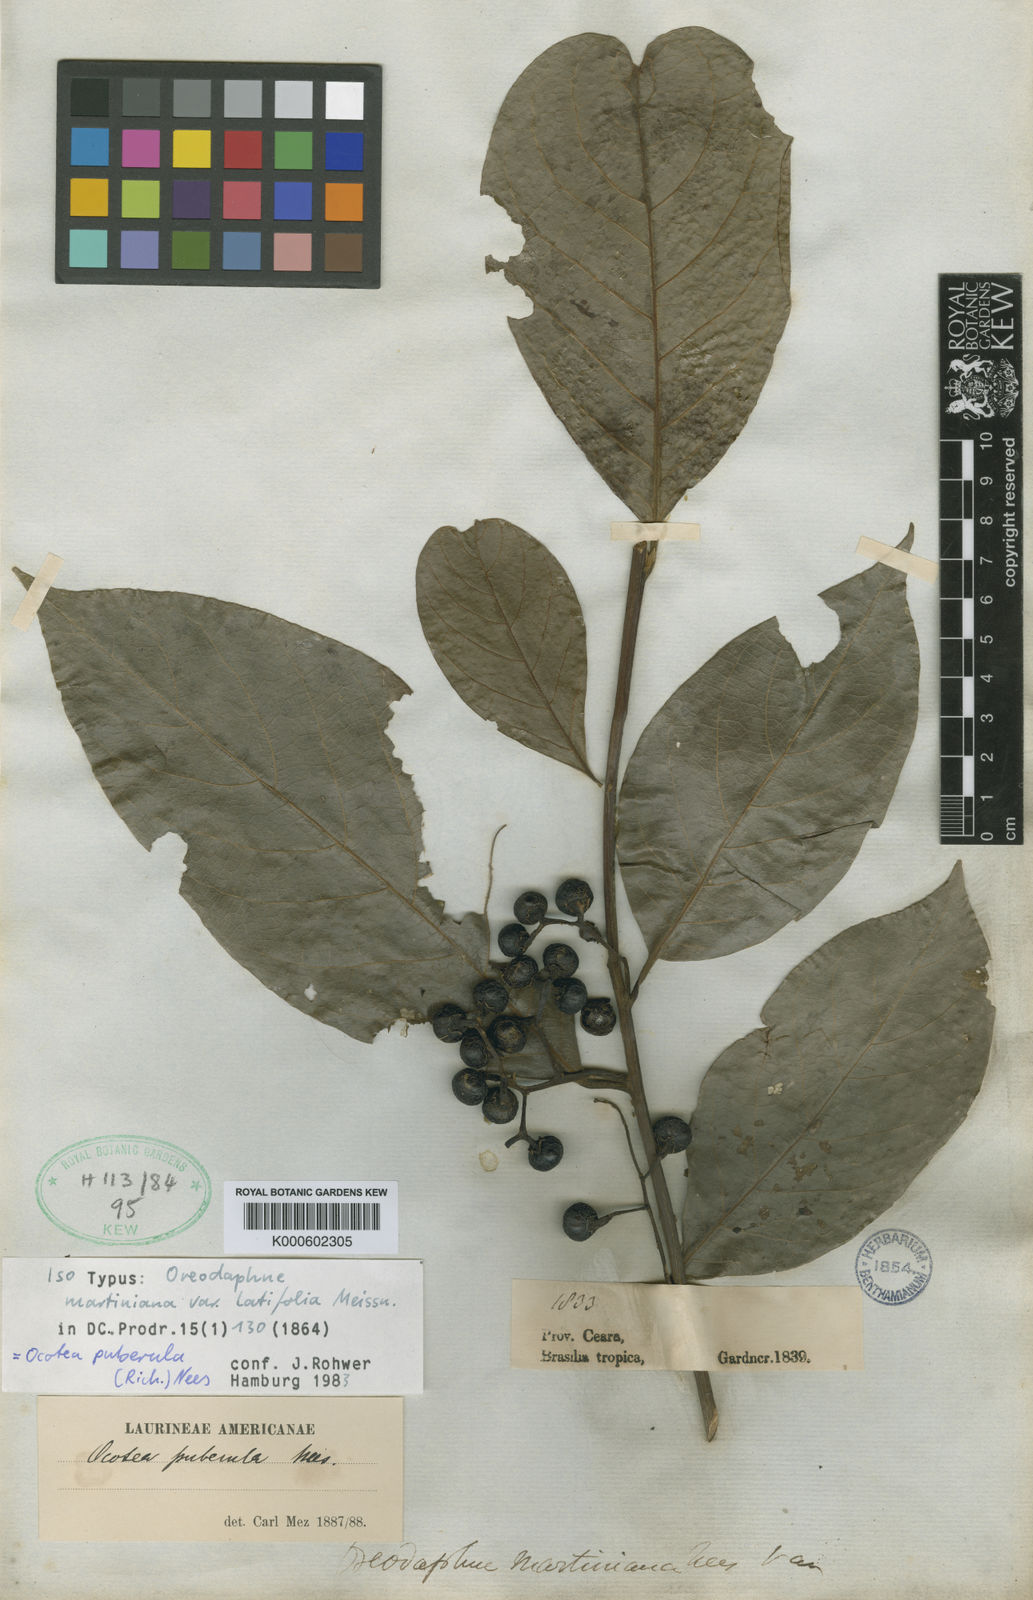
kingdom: Plantae
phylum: Tracheophyta
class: Magnoliopsida
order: Laurales
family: Lauraceae
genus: Ocotea
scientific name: Ocotea puberula
